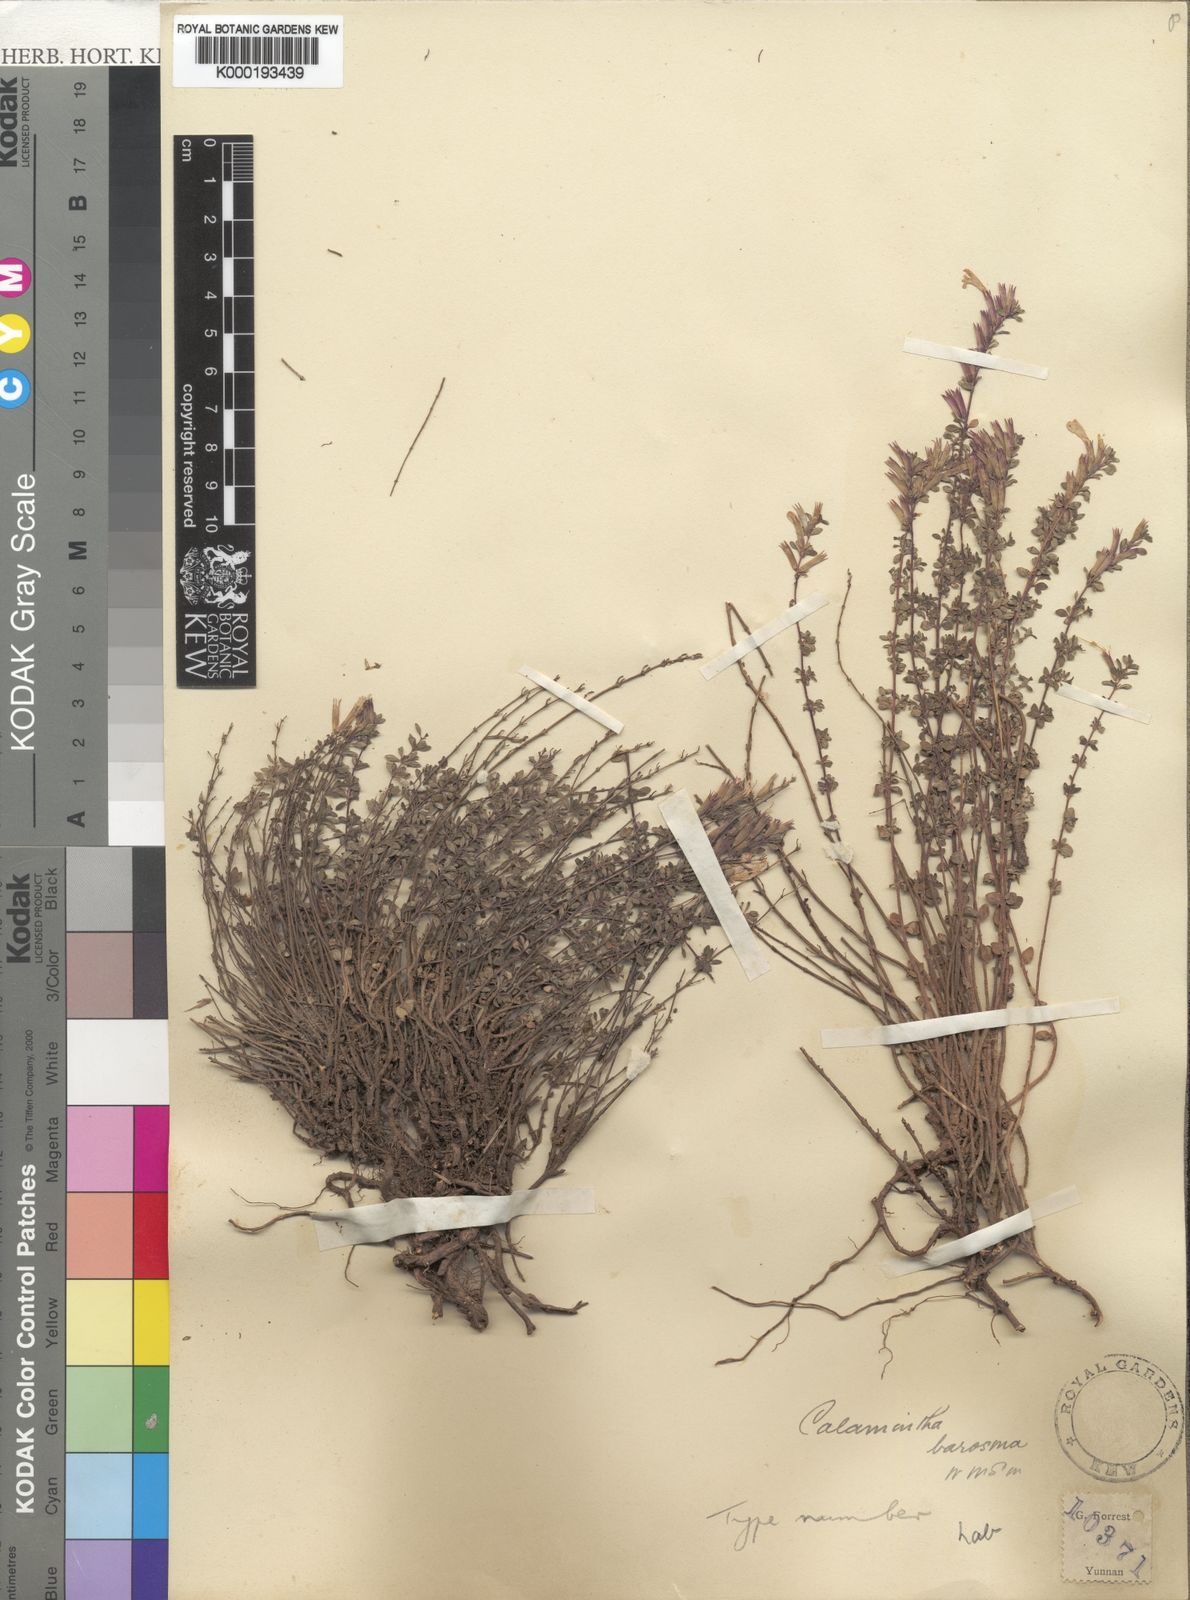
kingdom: Plantae
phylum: Tracheophyta
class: Magnoliopsida
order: Lamiales
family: Lamiaceae
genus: Clinopodium
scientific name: Clinopodium barosmum
